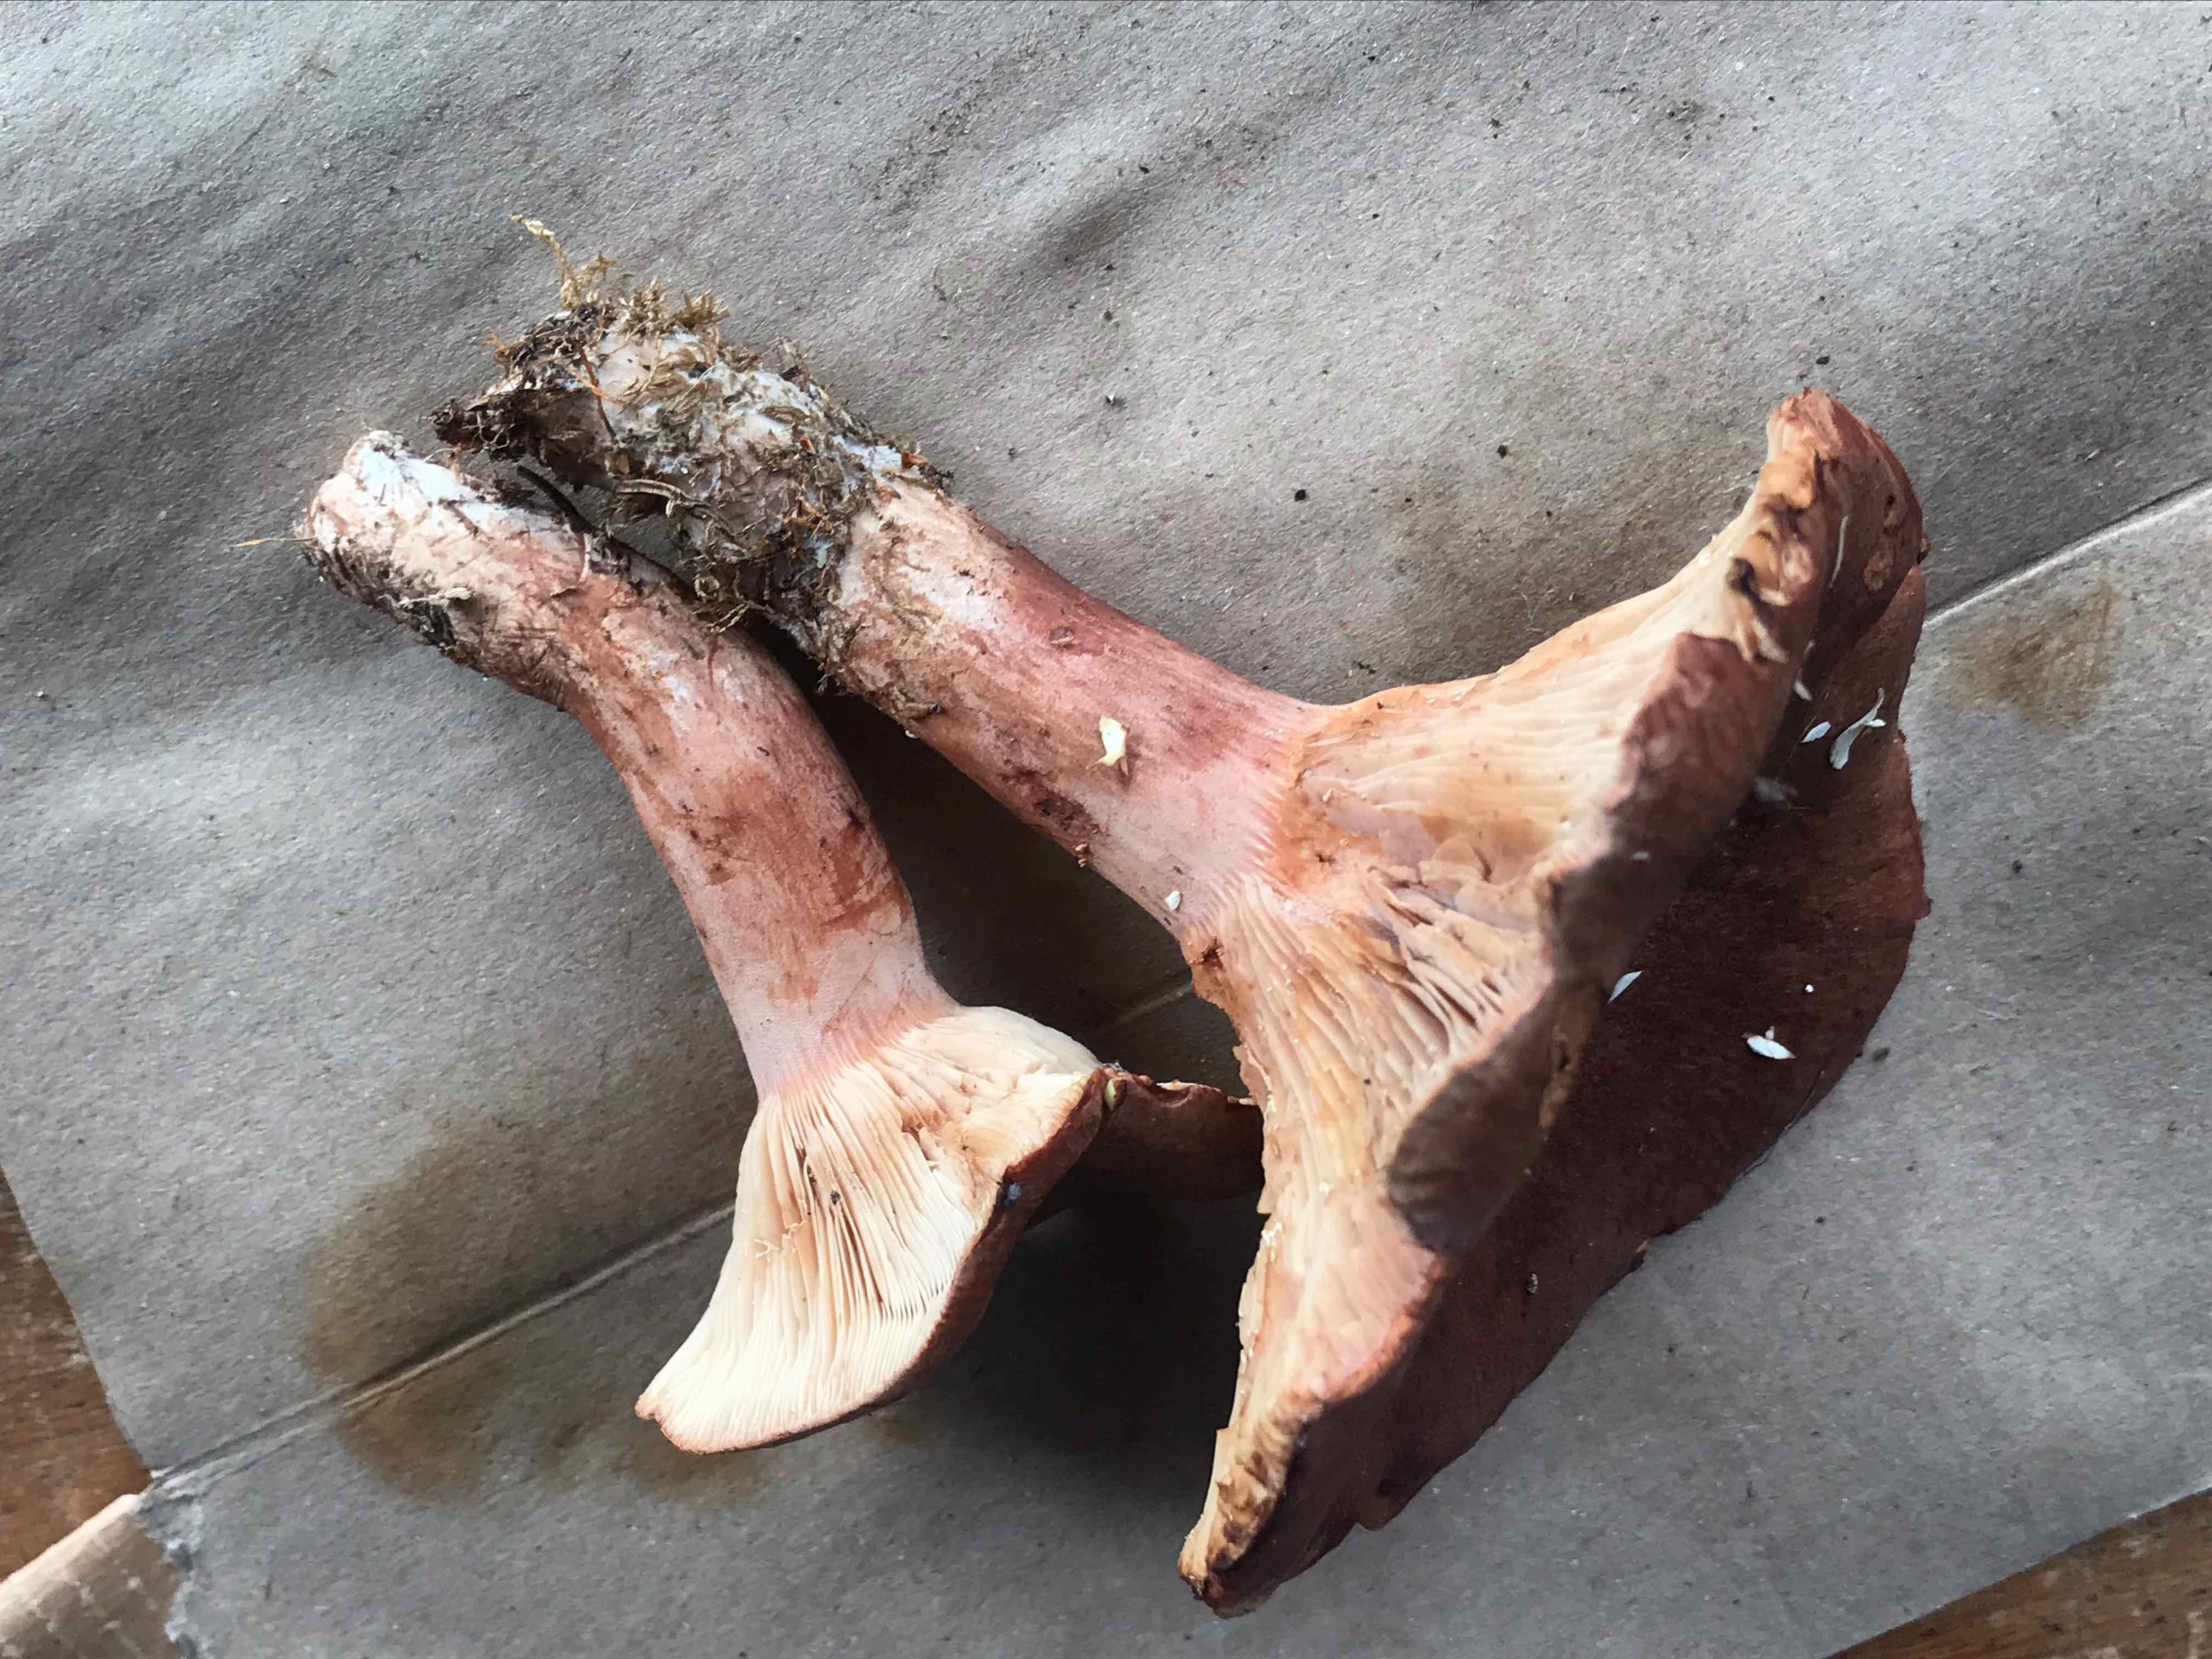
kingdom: Fungi
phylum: Basidiomycota
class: Agaricomycetes
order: Russulales
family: Russulaceae
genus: Lactarius
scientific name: Lactarius
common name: mælkehat
